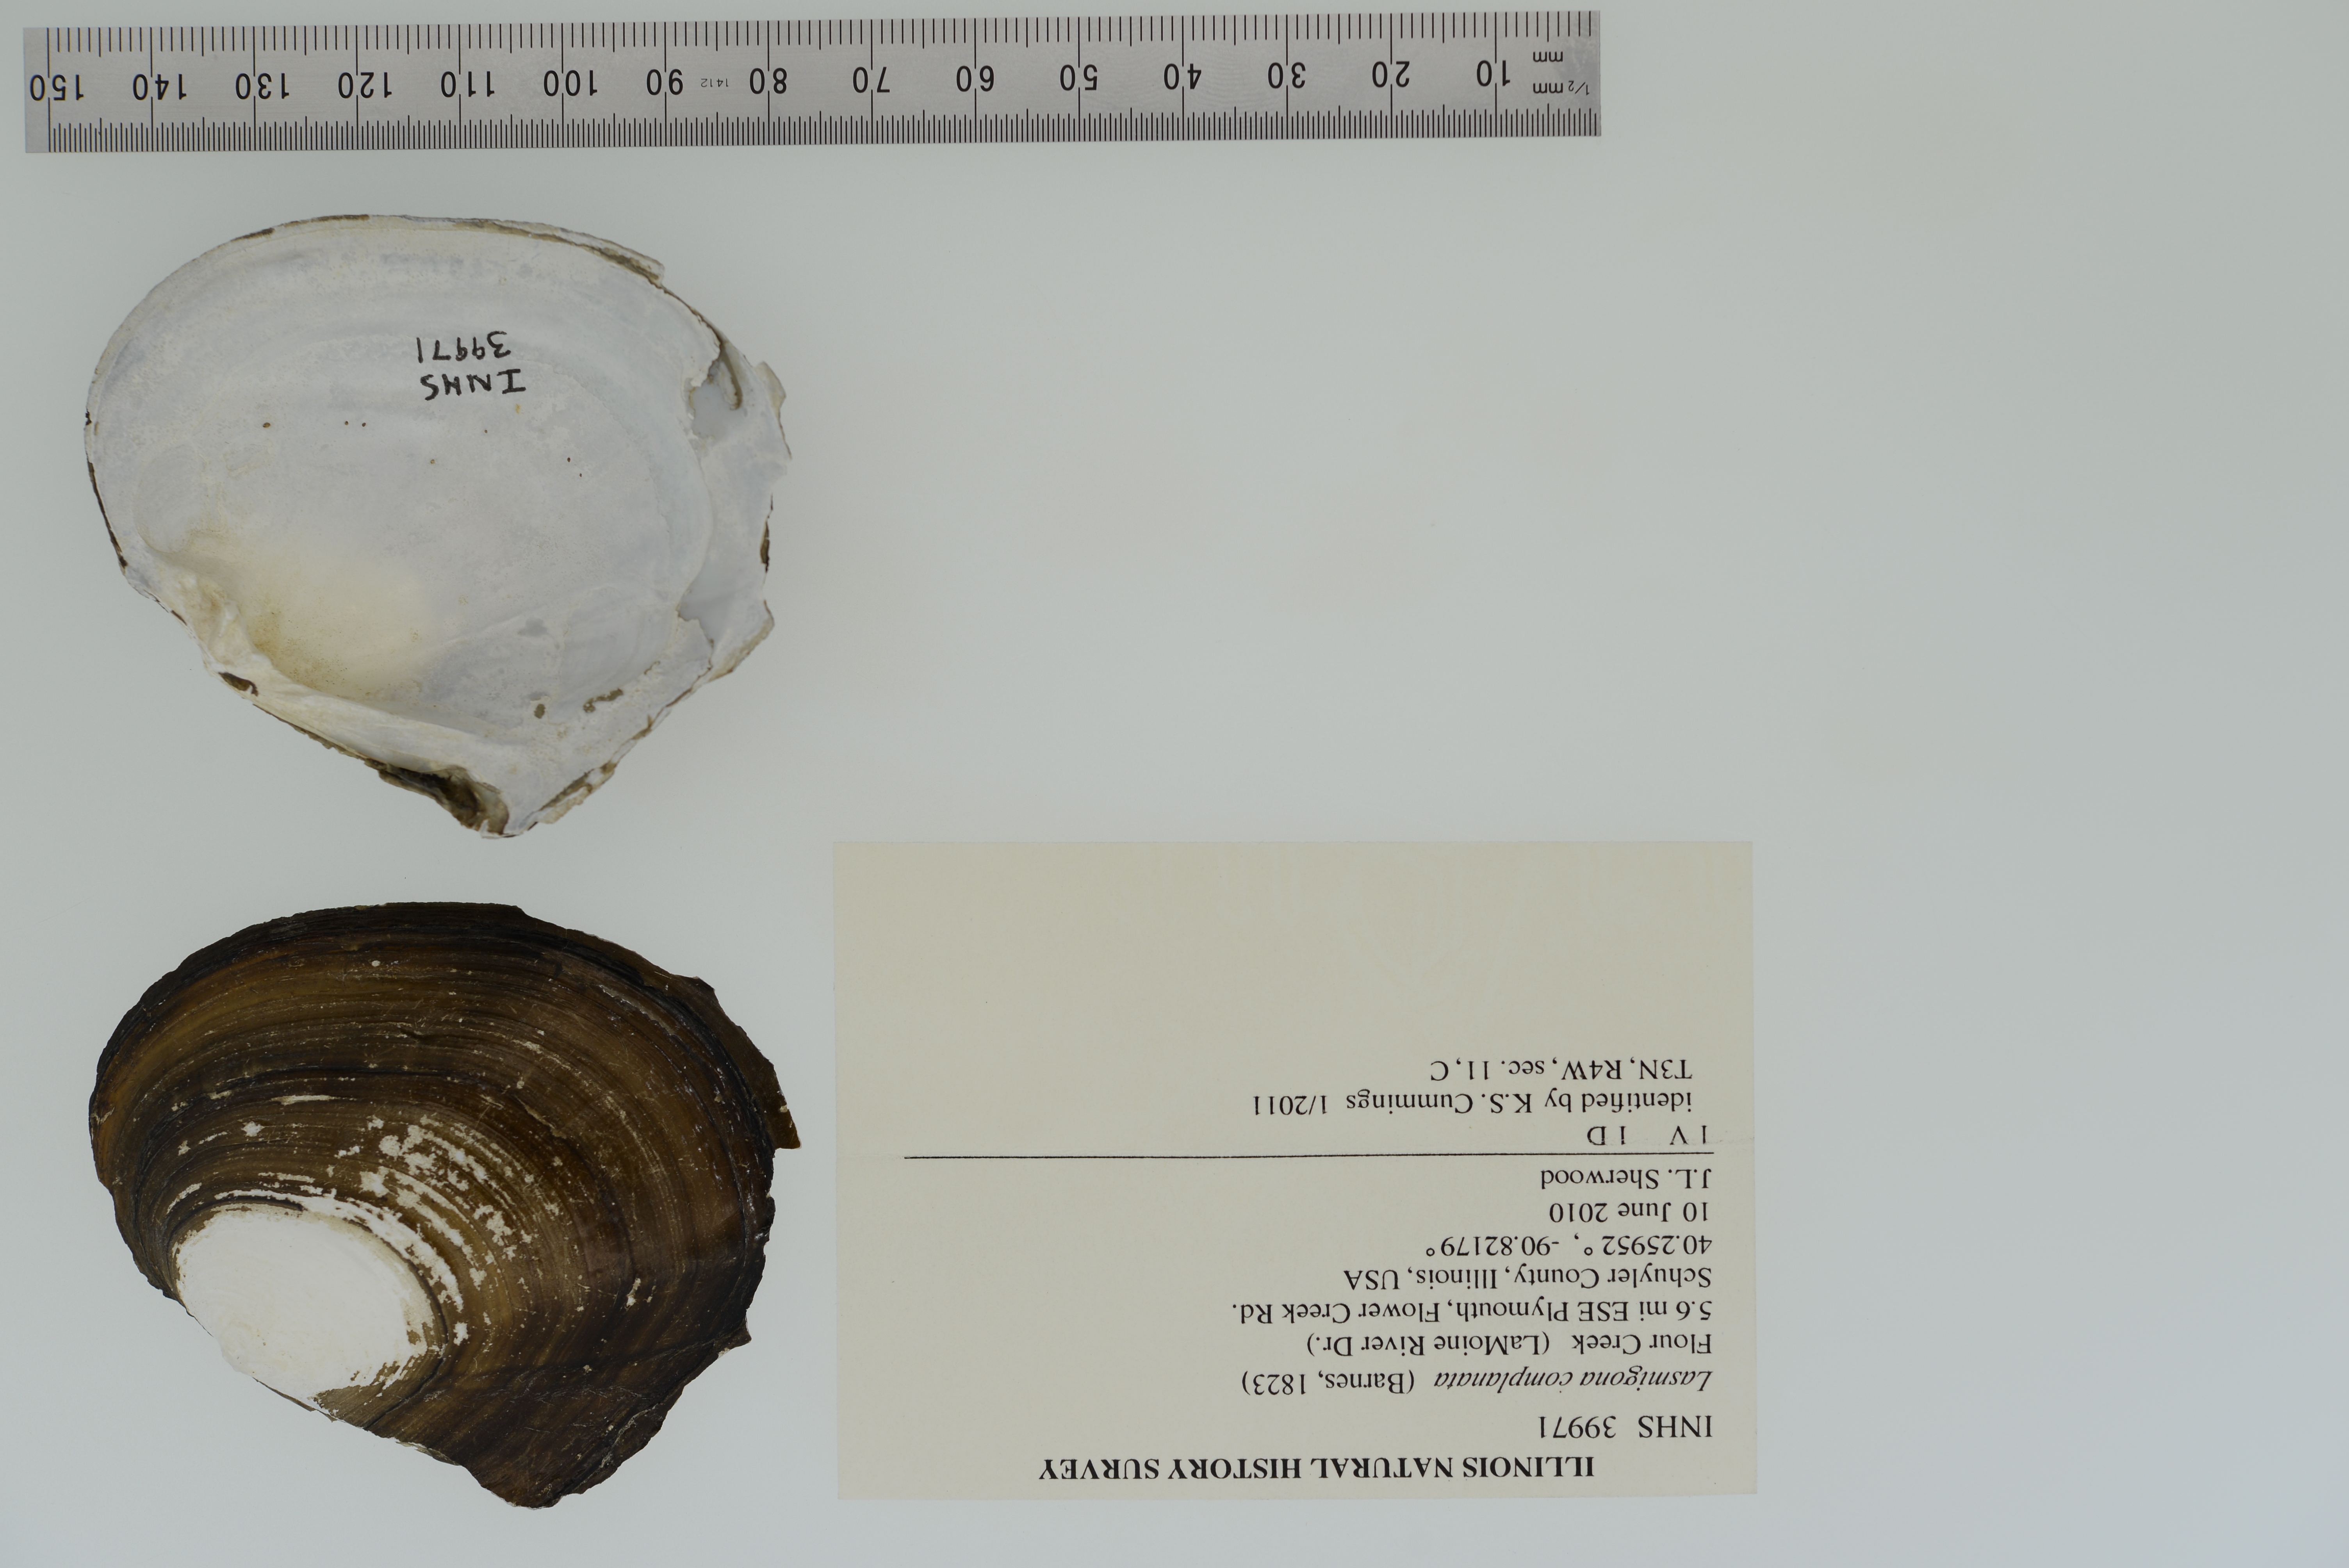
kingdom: Animalia
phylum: Mollusca
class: Bivalvia
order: Unionida
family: Unionidae
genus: Lasmigona
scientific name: Lasmigona complanata
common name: White heelsplitter
